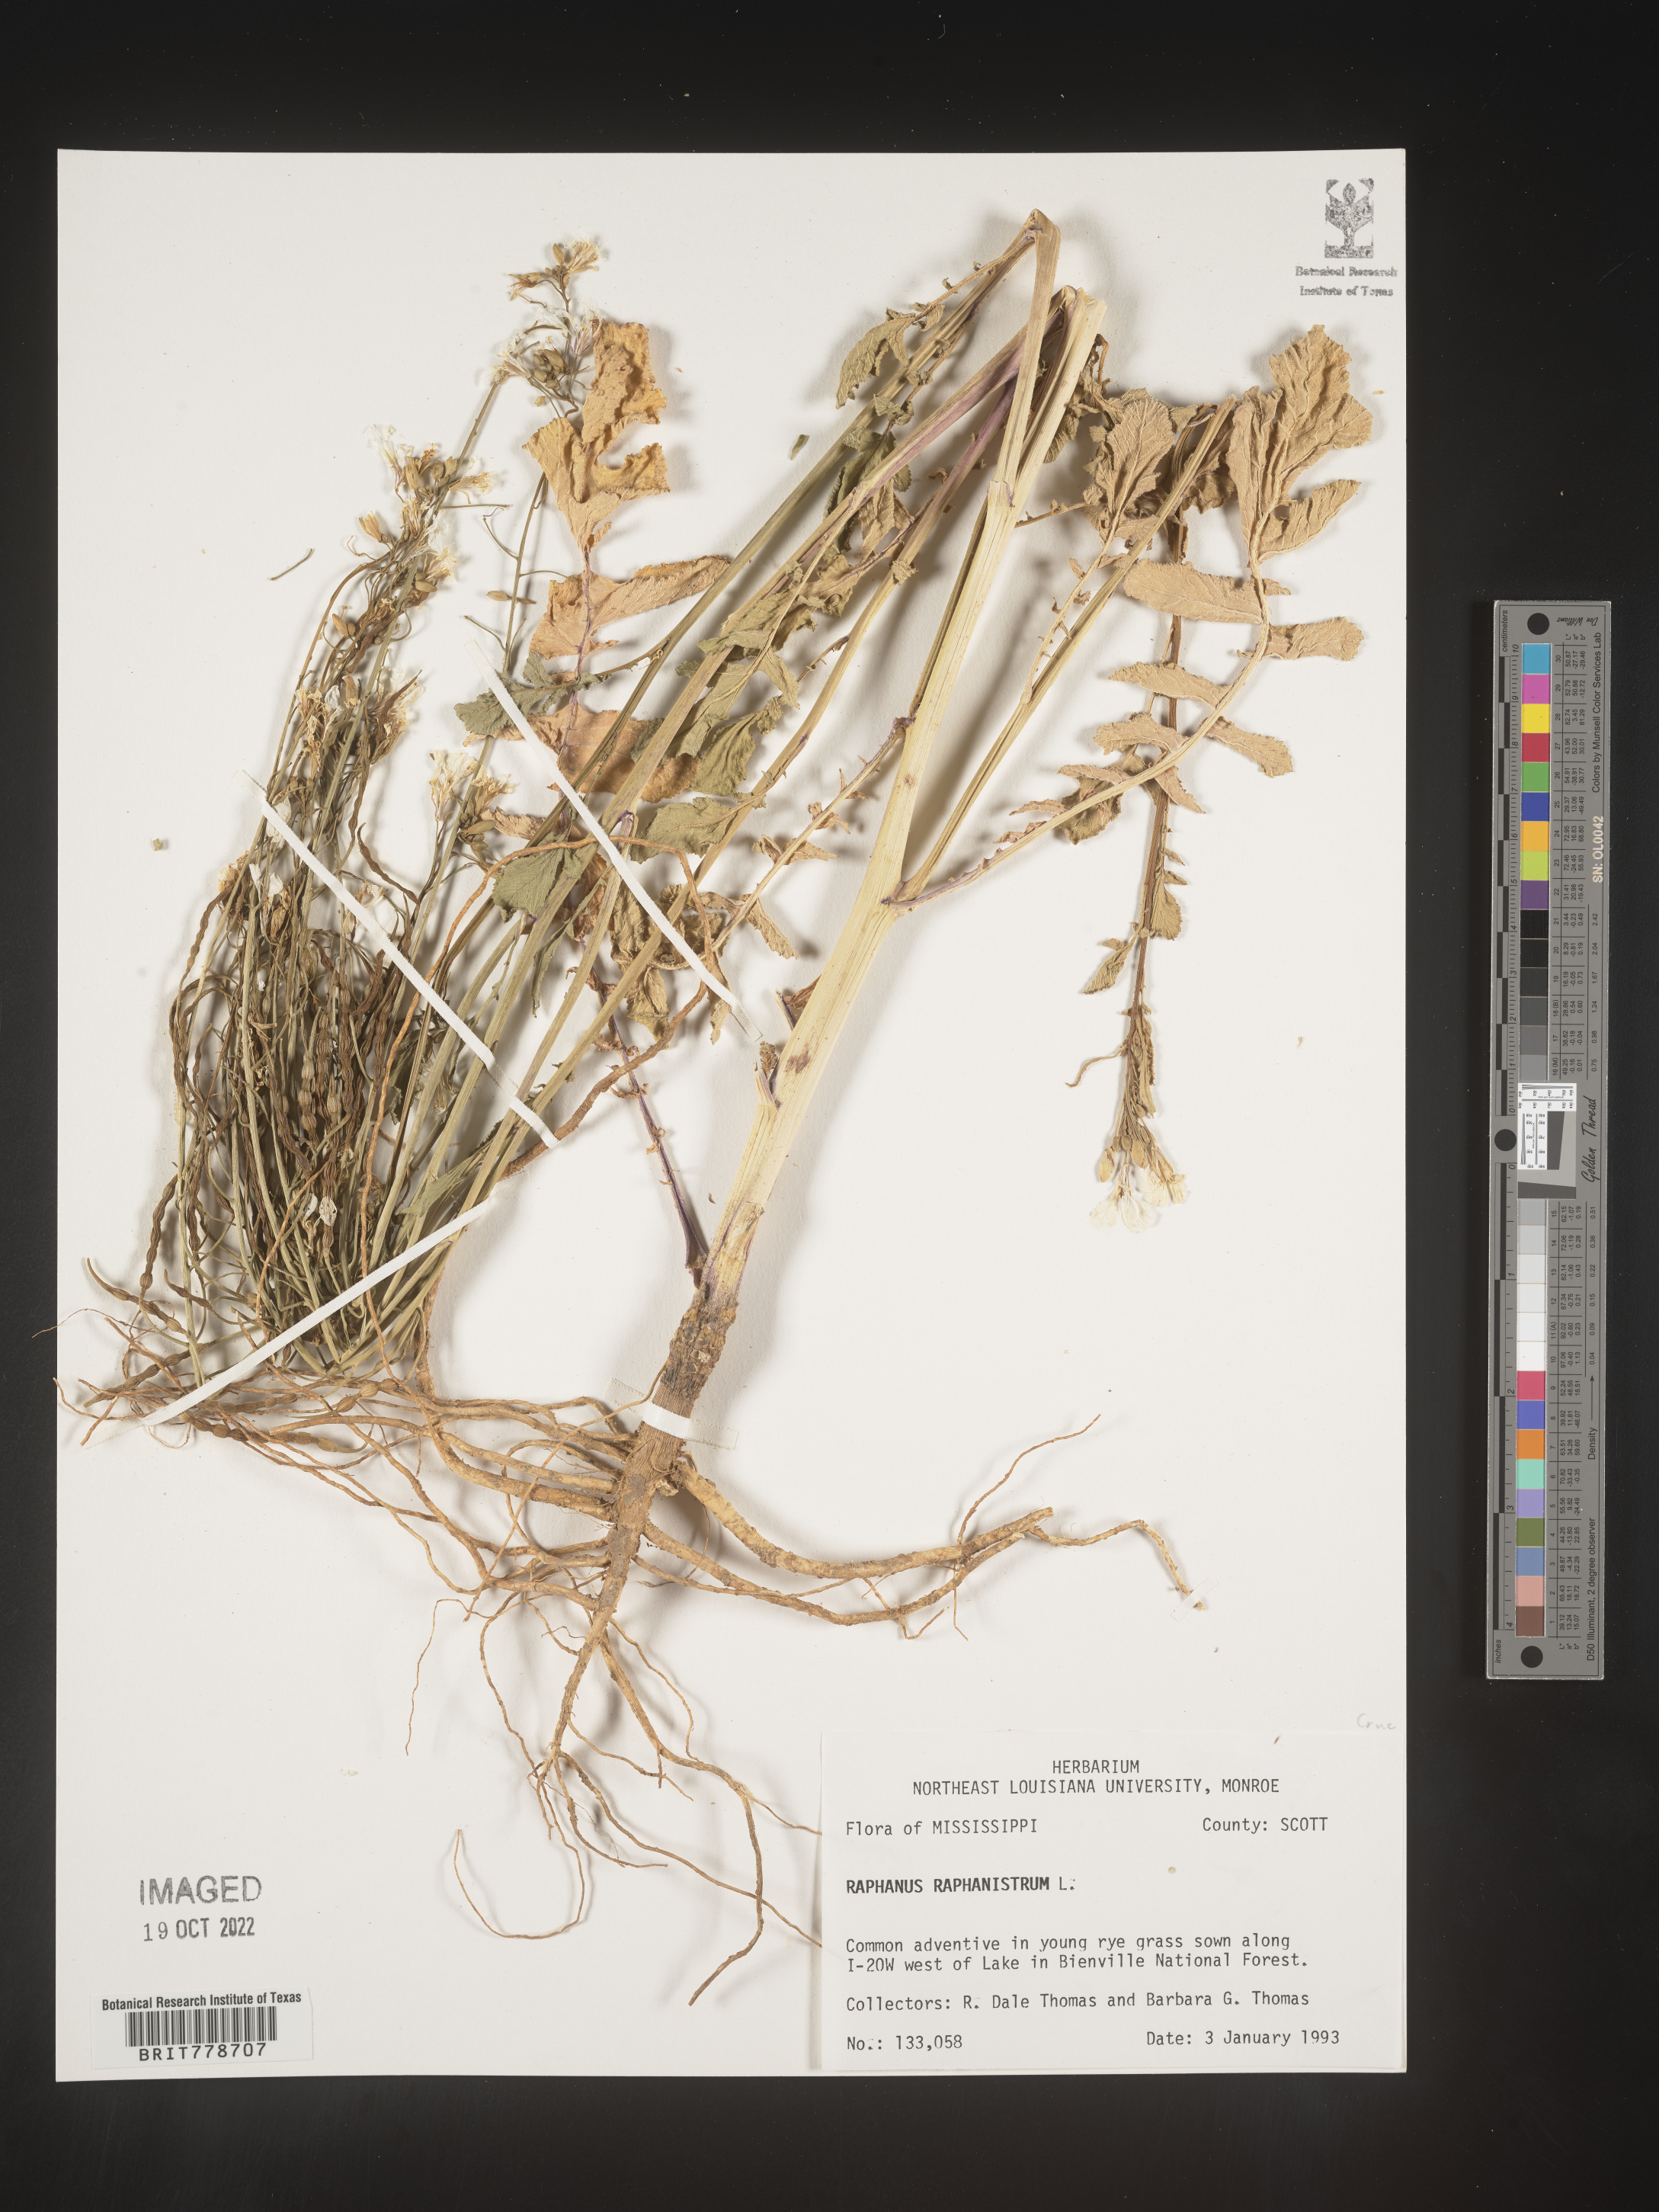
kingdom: Plantae
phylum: Tracheophyta
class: Magnoliopsida
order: Brassicales
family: Brassicaceae
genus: Raphanus
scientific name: Raphanus raphanistrum
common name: Wild radish
